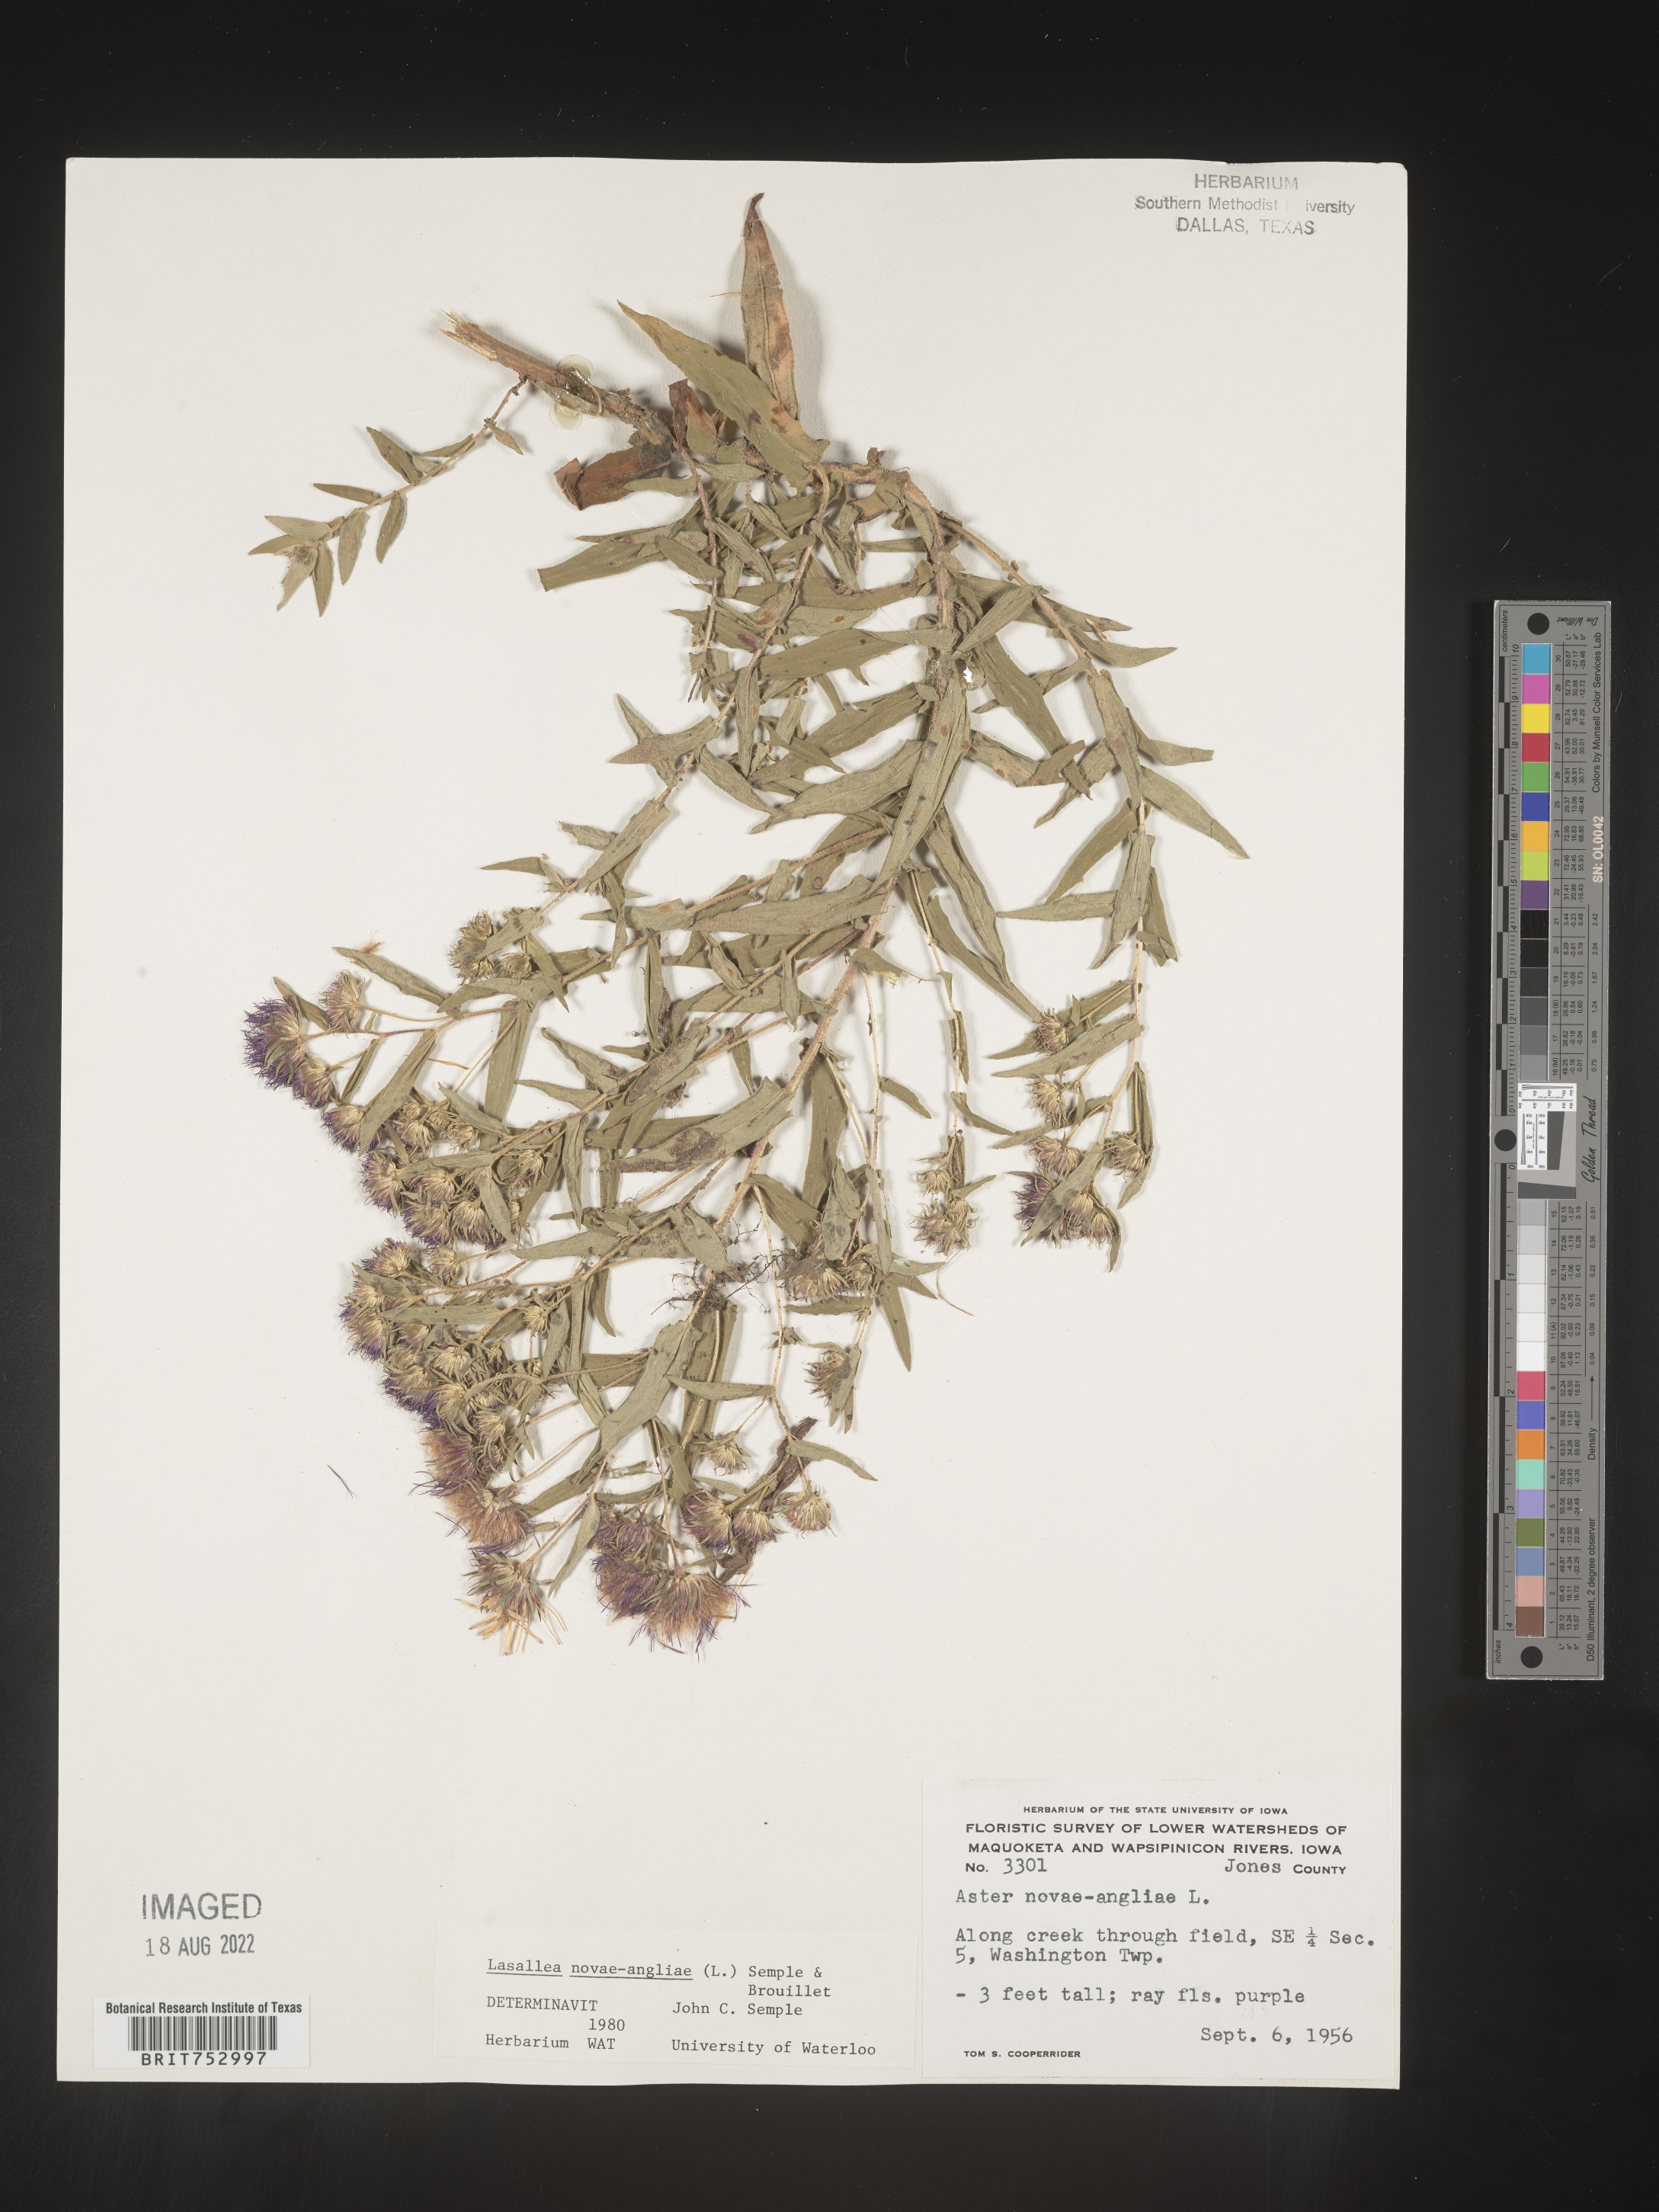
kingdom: Plantae
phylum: Tracheophyta
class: Magnoliopsida
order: Asterales
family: Asteraceae
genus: Symphyotrichum
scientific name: Symphyotrichum novae-angliae
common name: Michaelmas daisy
